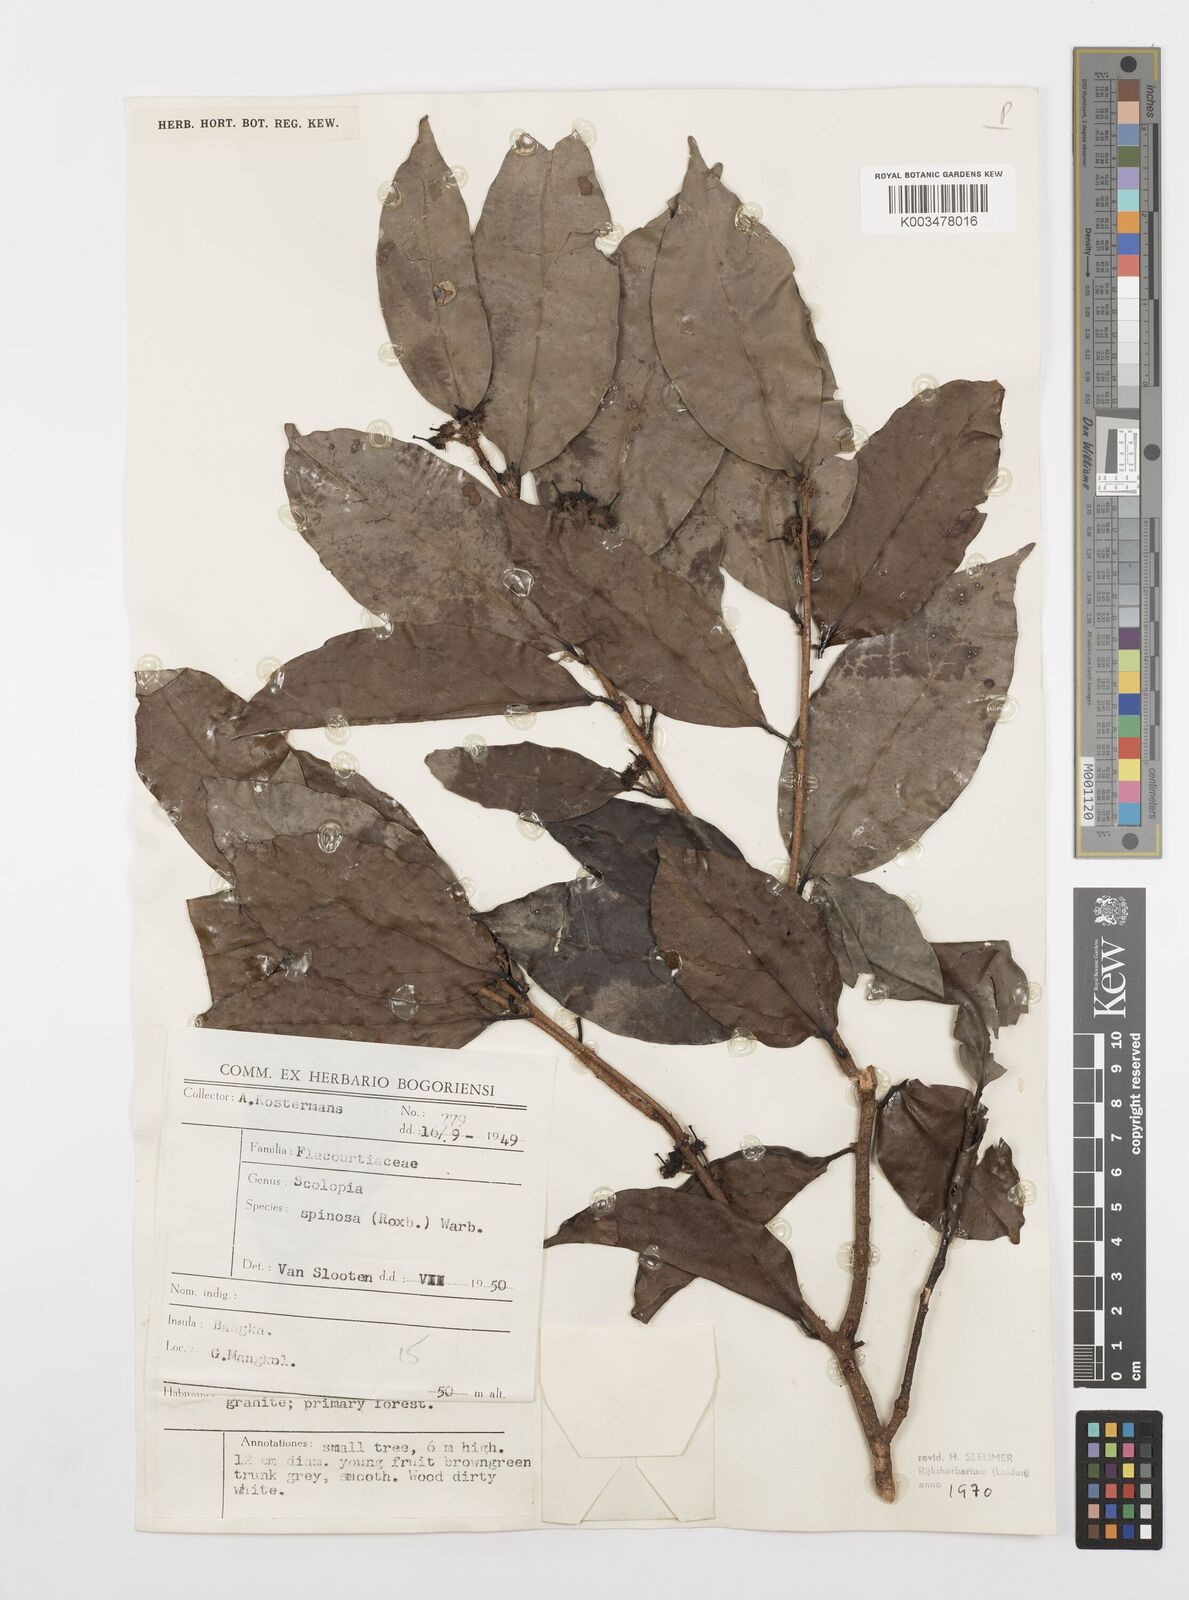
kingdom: Plantae
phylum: Tracheophyta
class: Magnoliopsida
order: Malpighiales
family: Salicaceae
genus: Scolopia
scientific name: Scolopia spinosa
